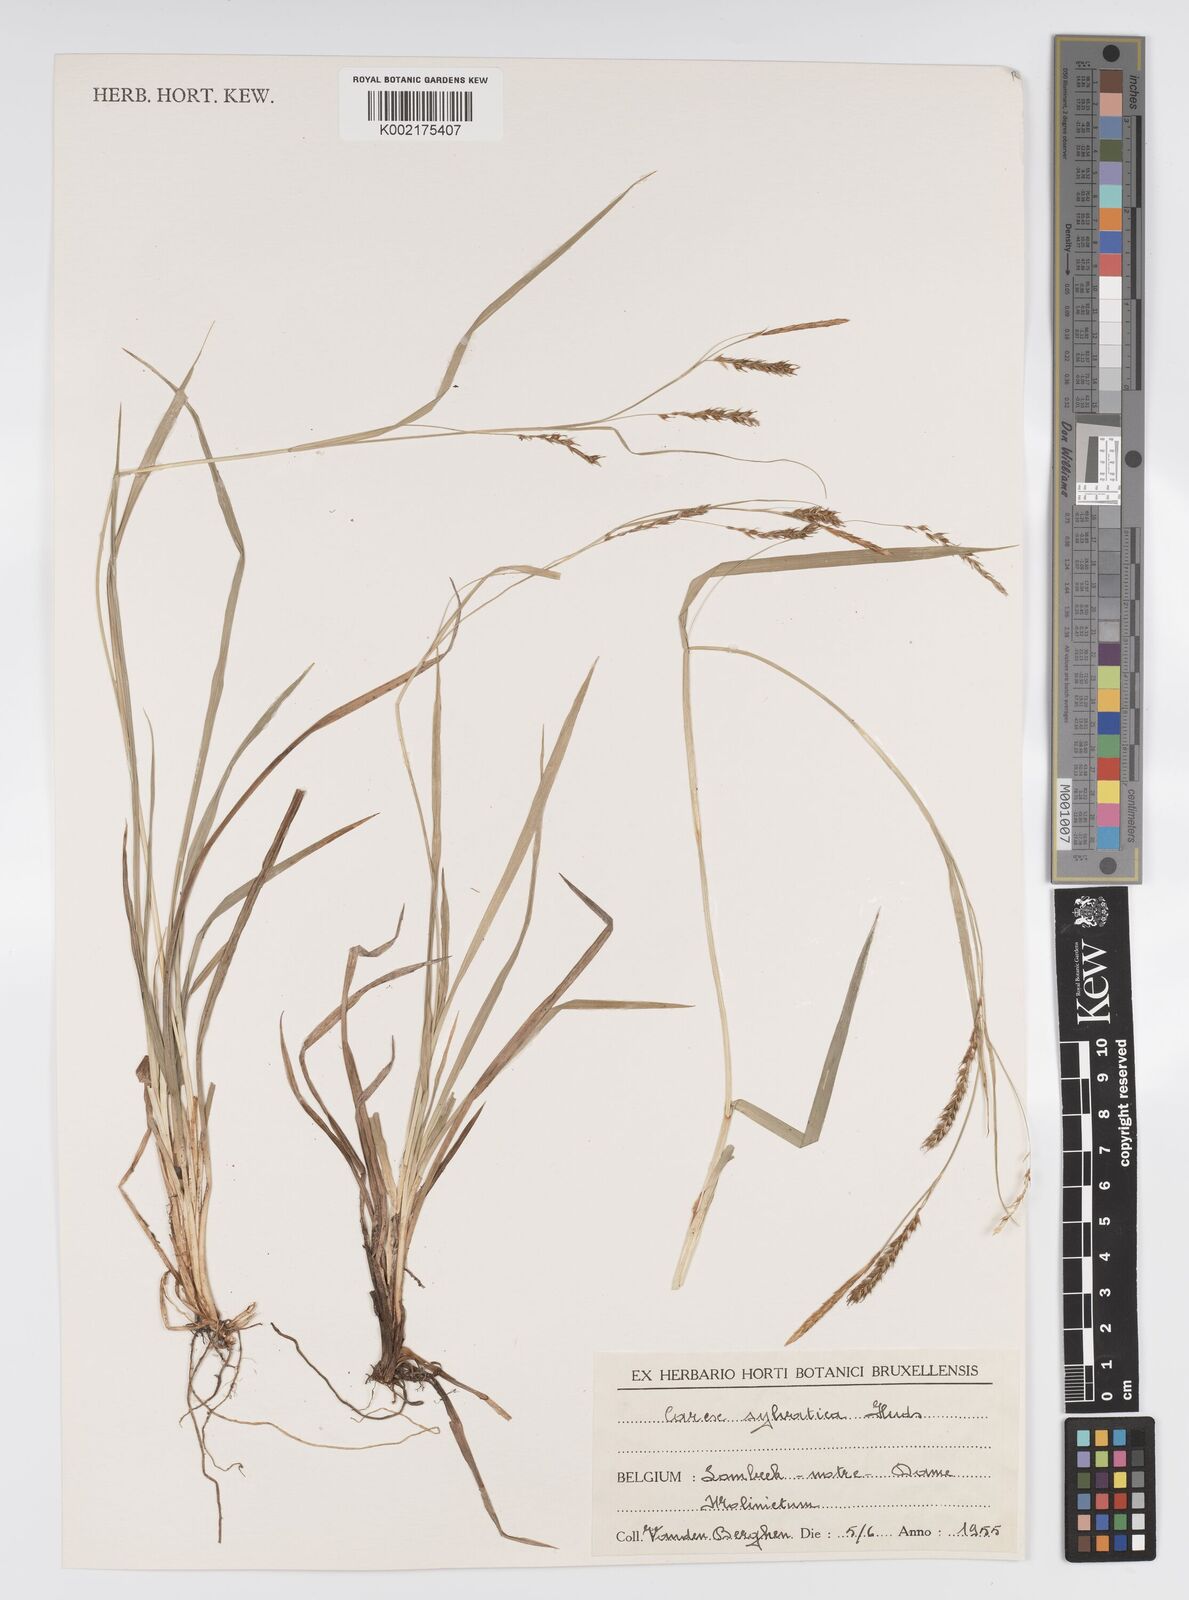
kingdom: Plantae
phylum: Tracheophyta
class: Liliopsida
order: Poales
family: Cyperaceae
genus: Carex
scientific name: Carex sylvatica
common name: Wood-sedge
